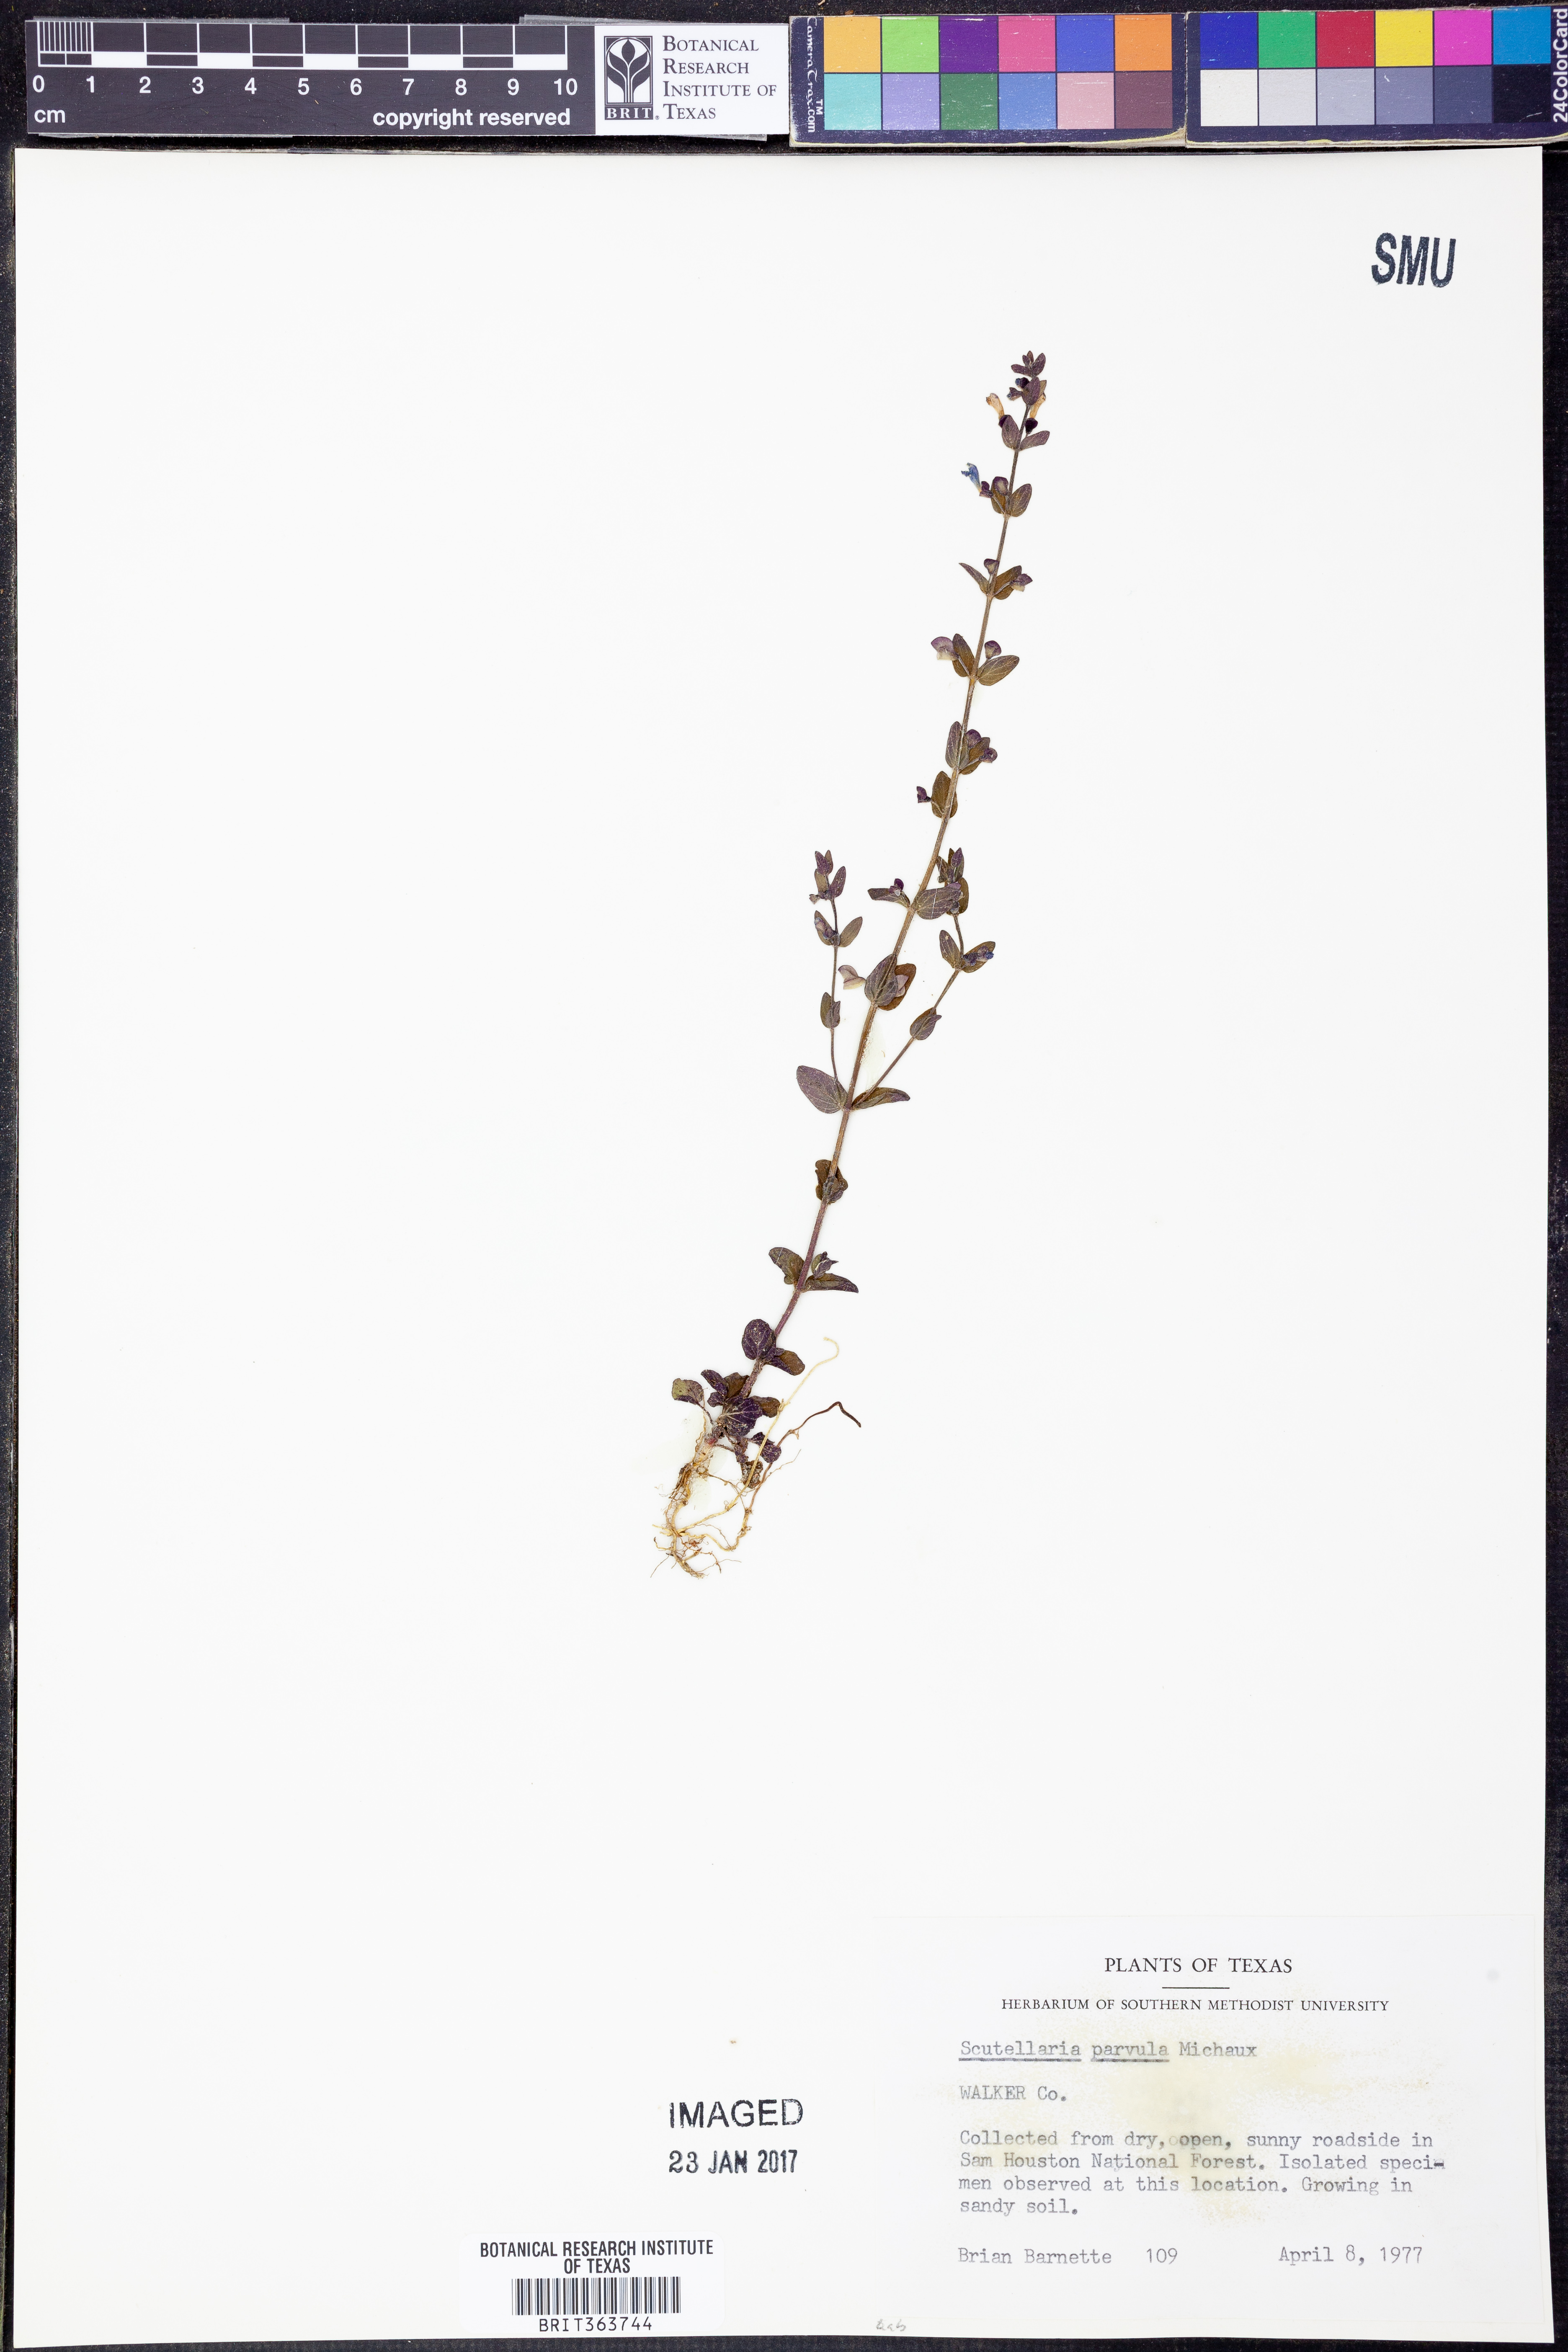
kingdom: Plantae
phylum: Tracheophyta
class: Magnoliopsida
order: Lamiales
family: Lamiaceae
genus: Scutellaria
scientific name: Scutellaria parvula
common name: Little scullcap
